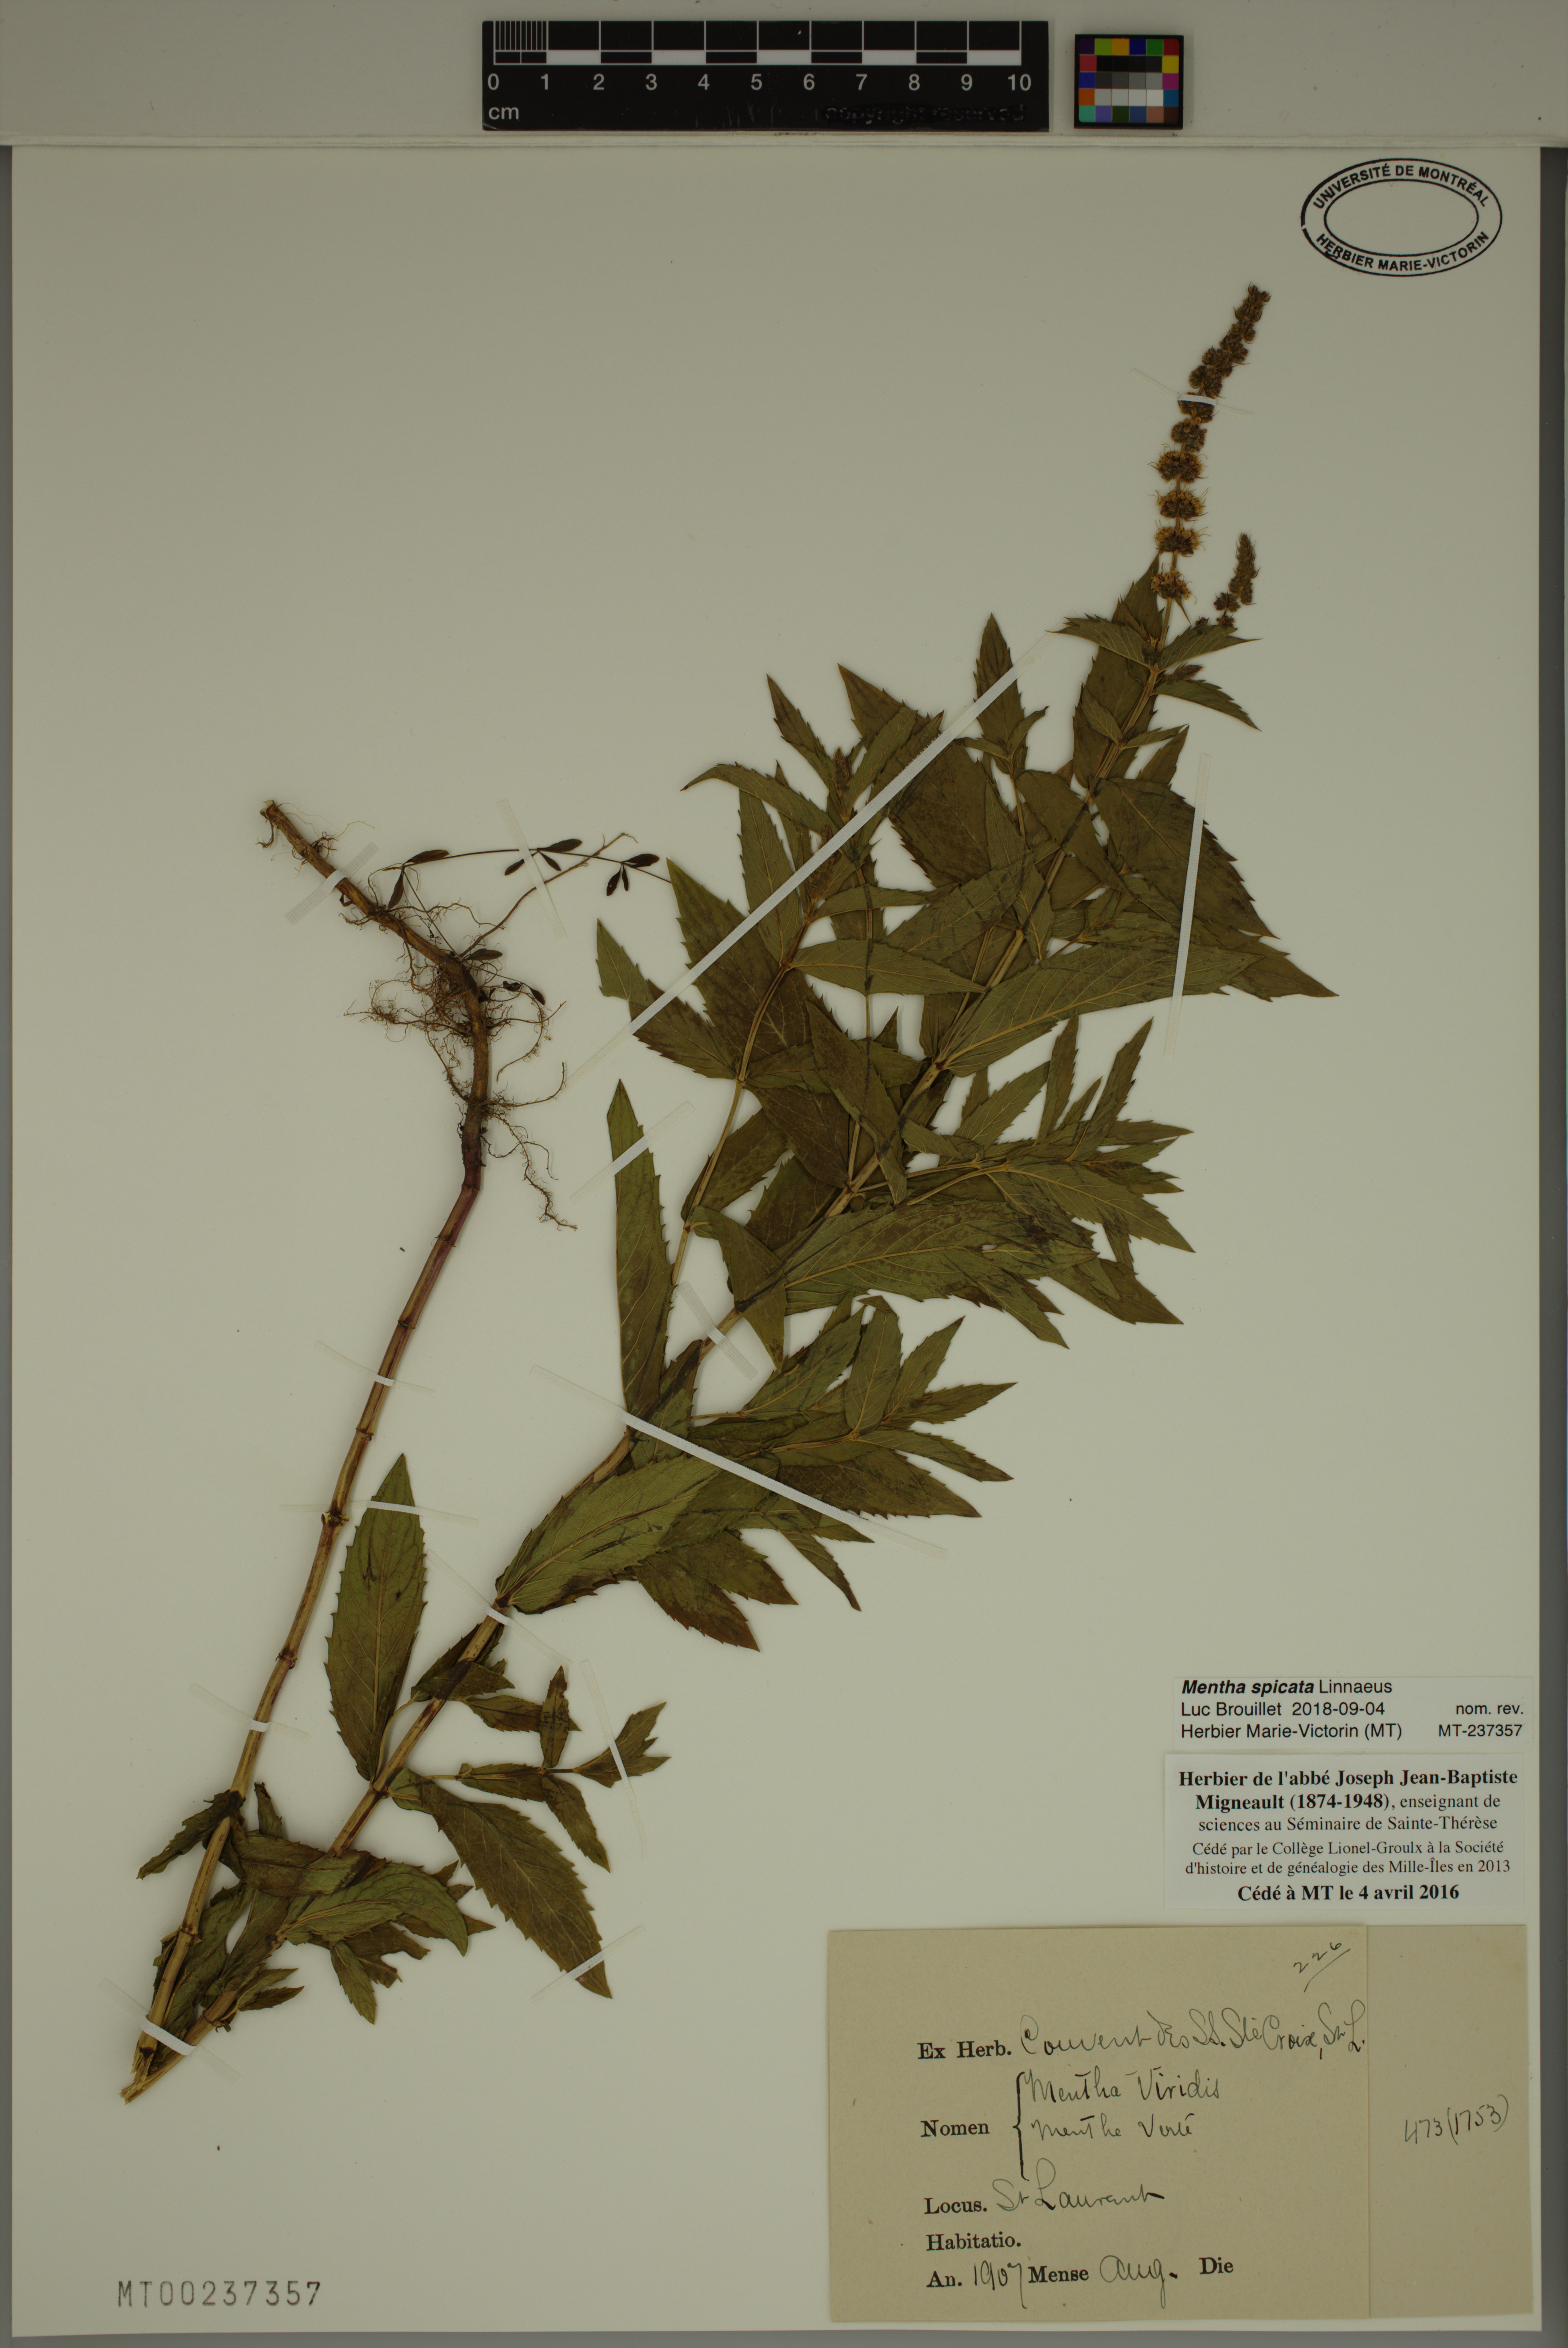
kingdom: Plantae
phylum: Tracheophyta
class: Magnoliopsida
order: Lamiales
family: Lamiaceae
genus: Mentha
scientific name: Mentha spicata
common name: Spearmint
